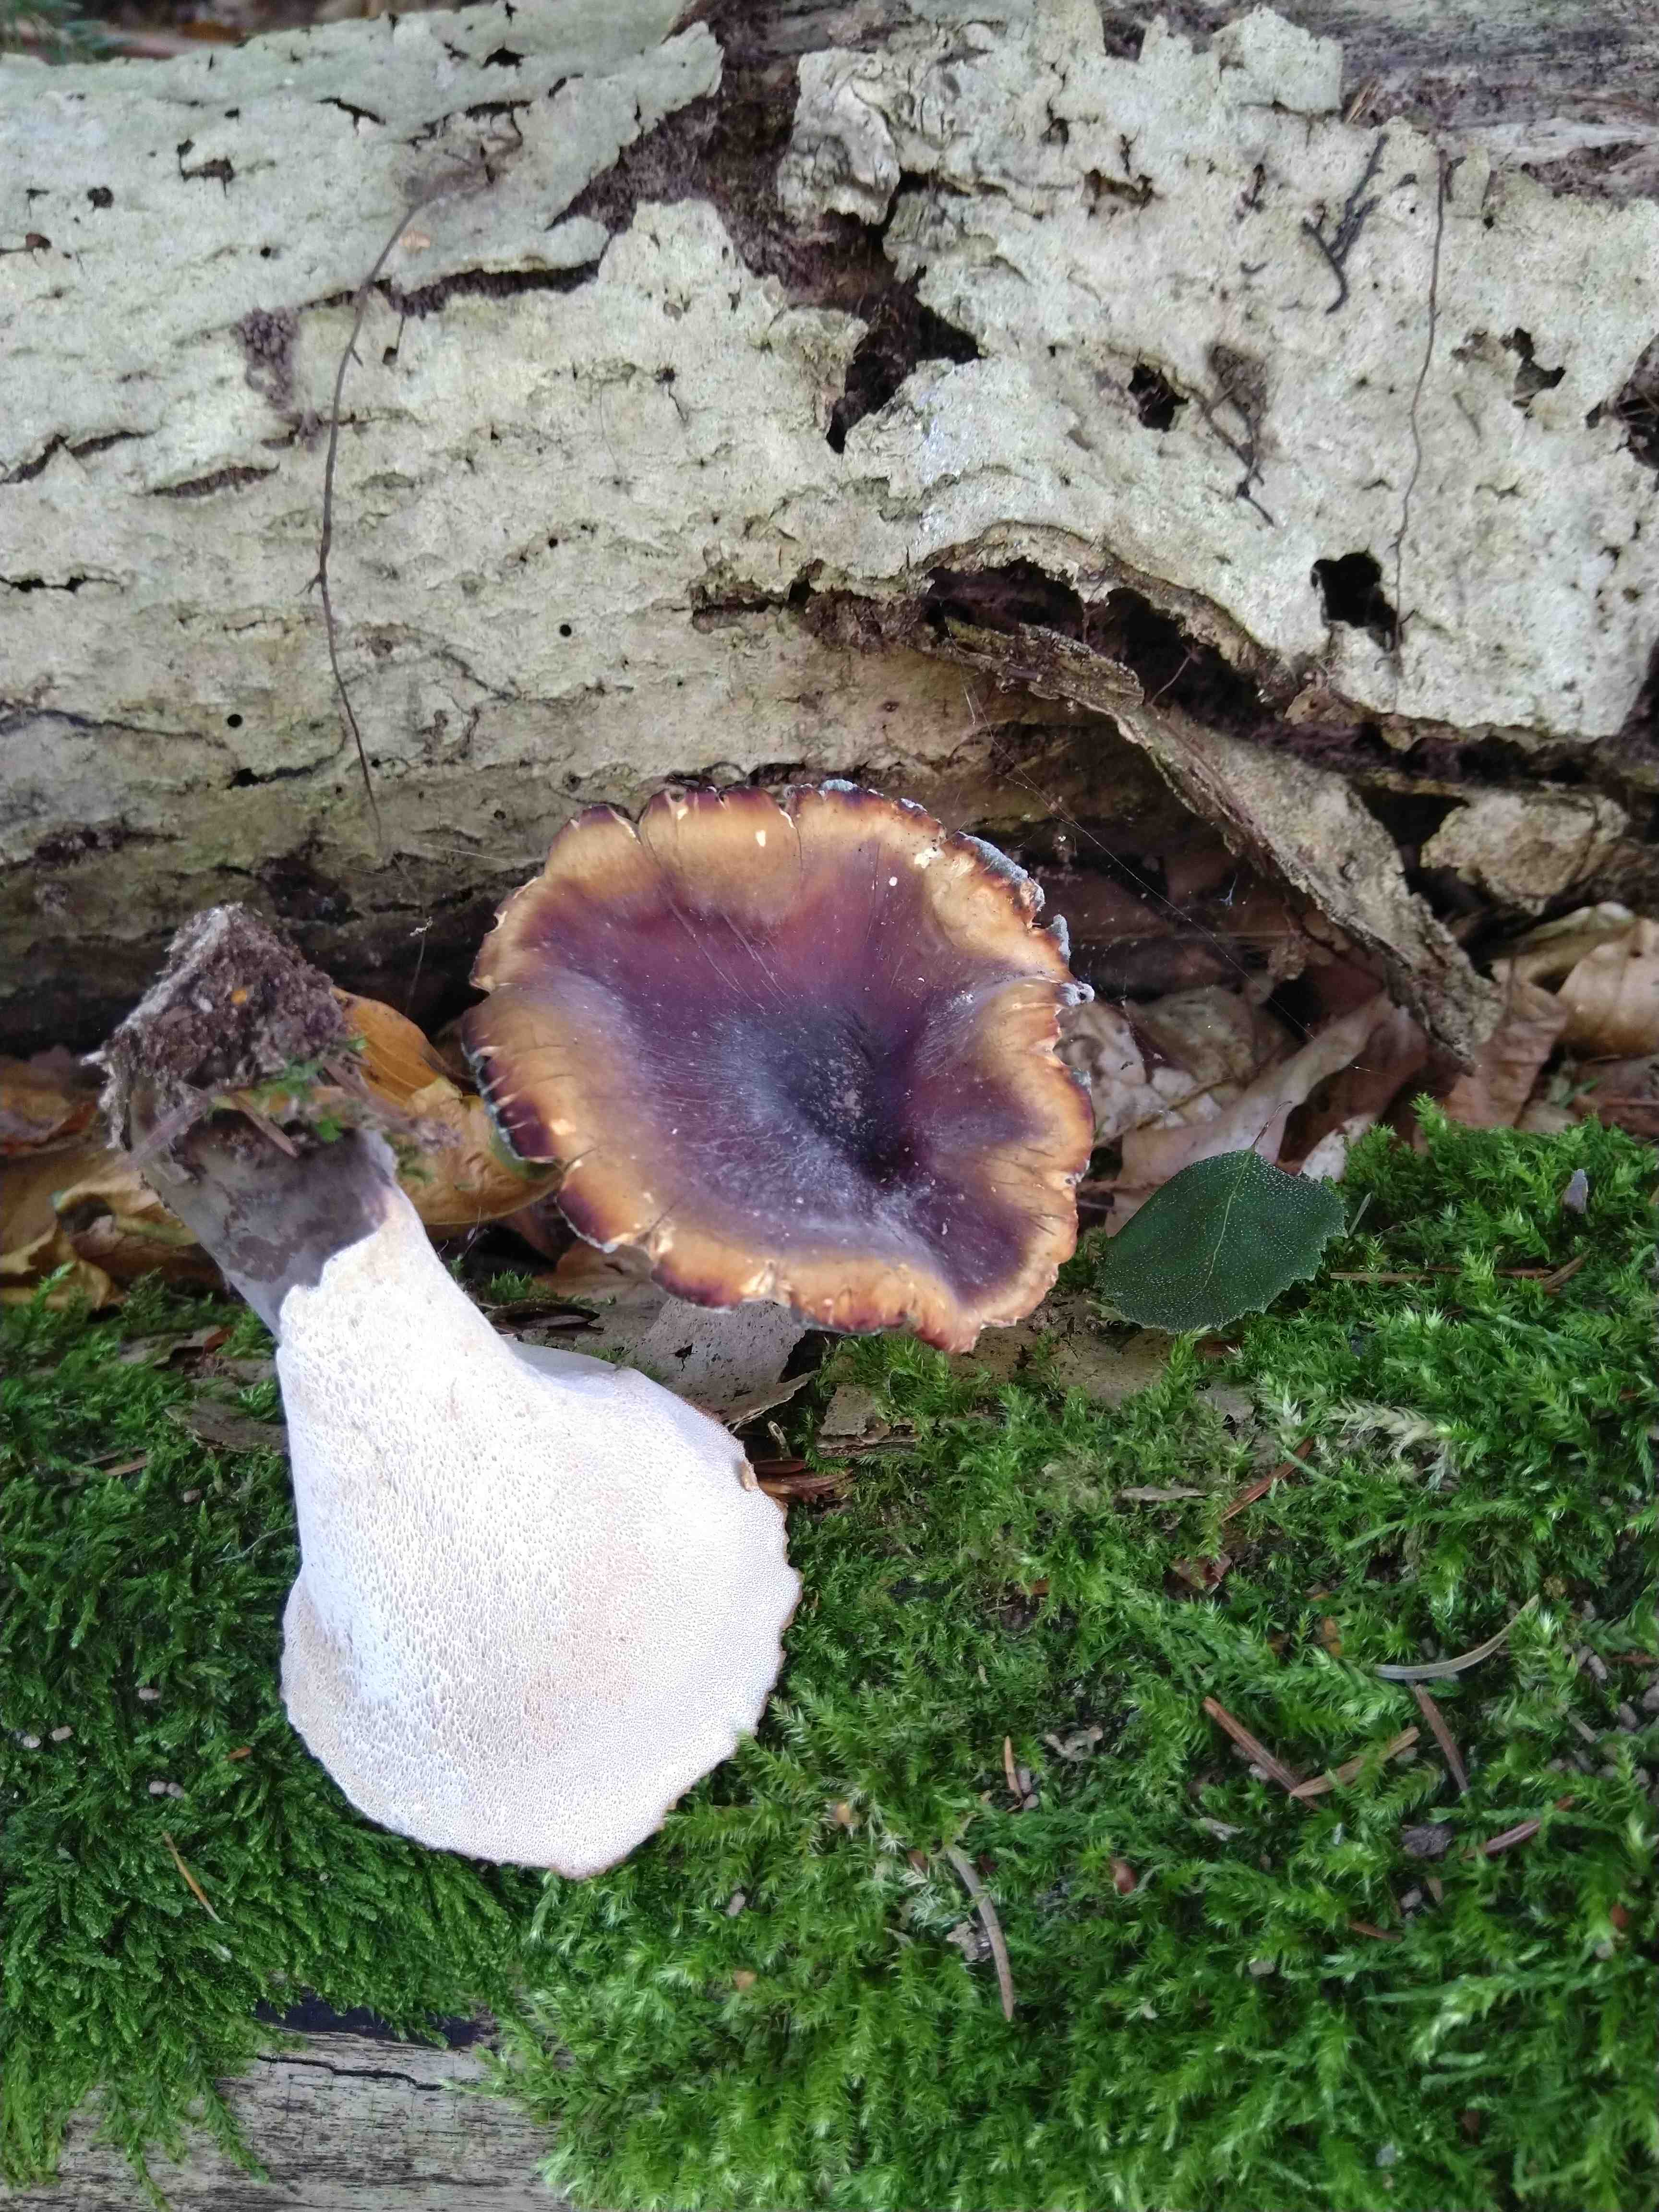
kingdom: Fungi
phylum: Basidiomycota
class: Agaricomycetes
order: Polyporales
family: Polyporaceae
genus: Picipes
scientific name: Picipes badius
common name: kastaniebrun stilkporesvamp
